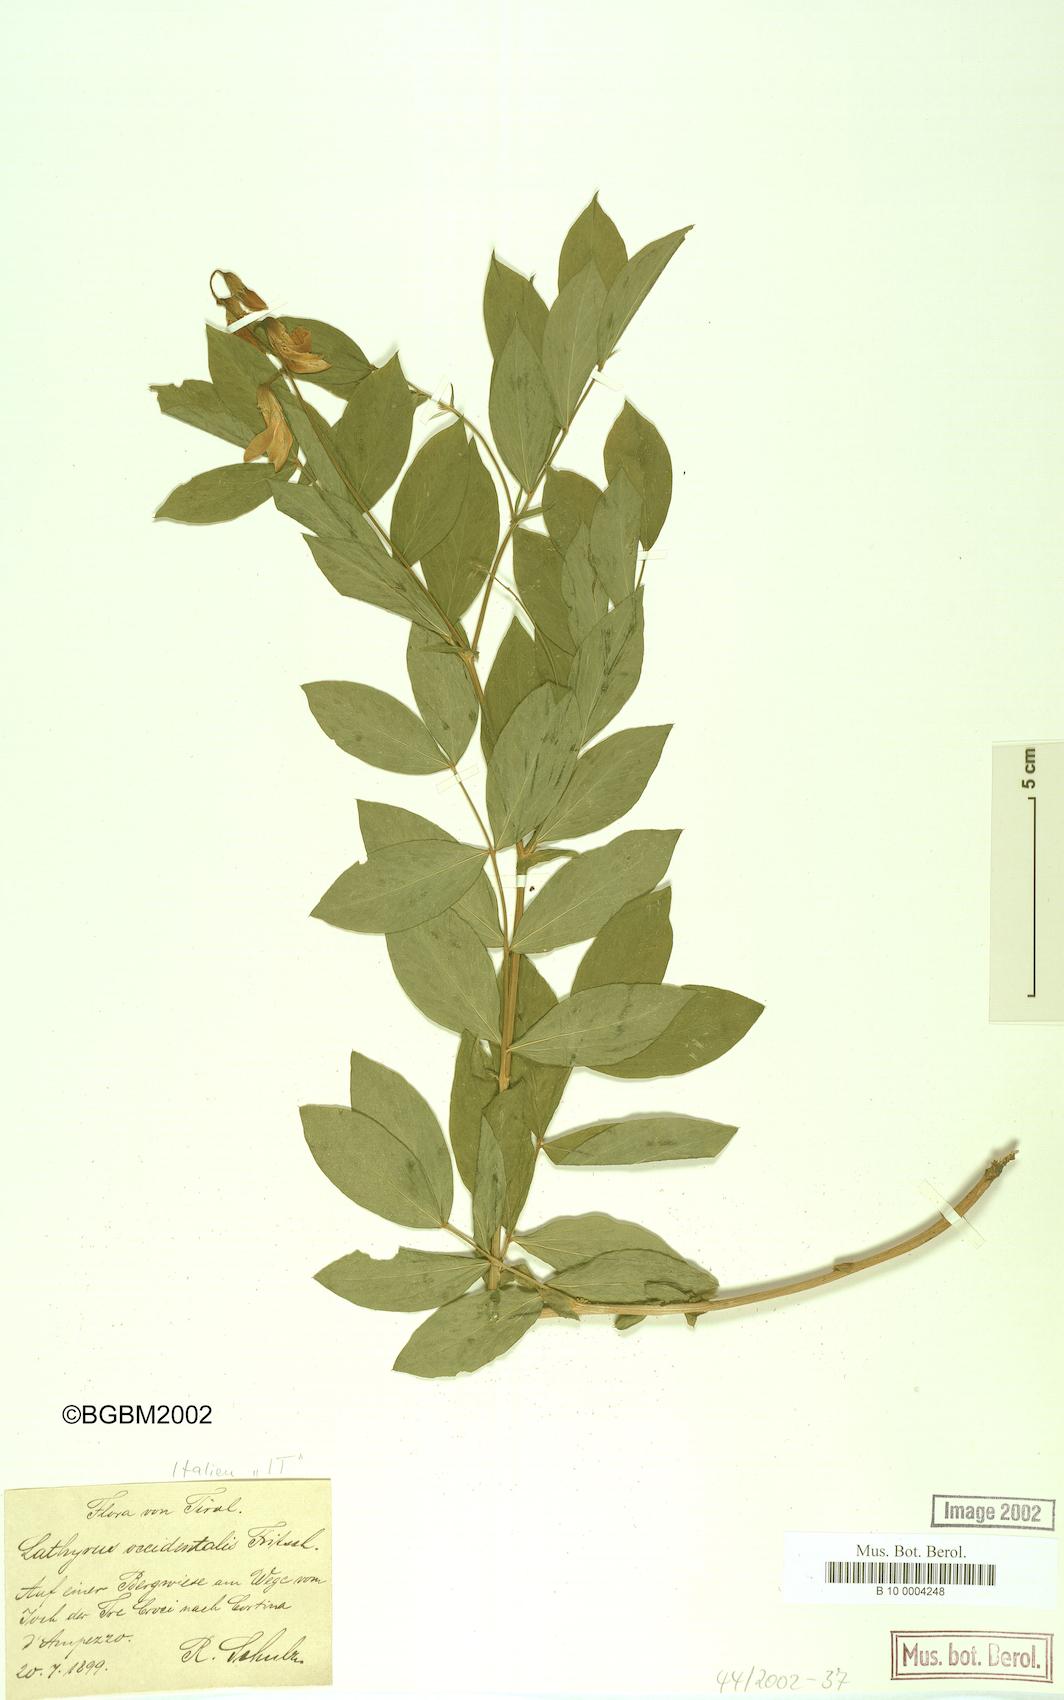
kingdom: Plantae
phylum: Tracheophyta
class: Magnoliopsida
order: Fabales
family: Fabaceae
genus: Lathyrus
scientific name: Lathyrus gmelinii
